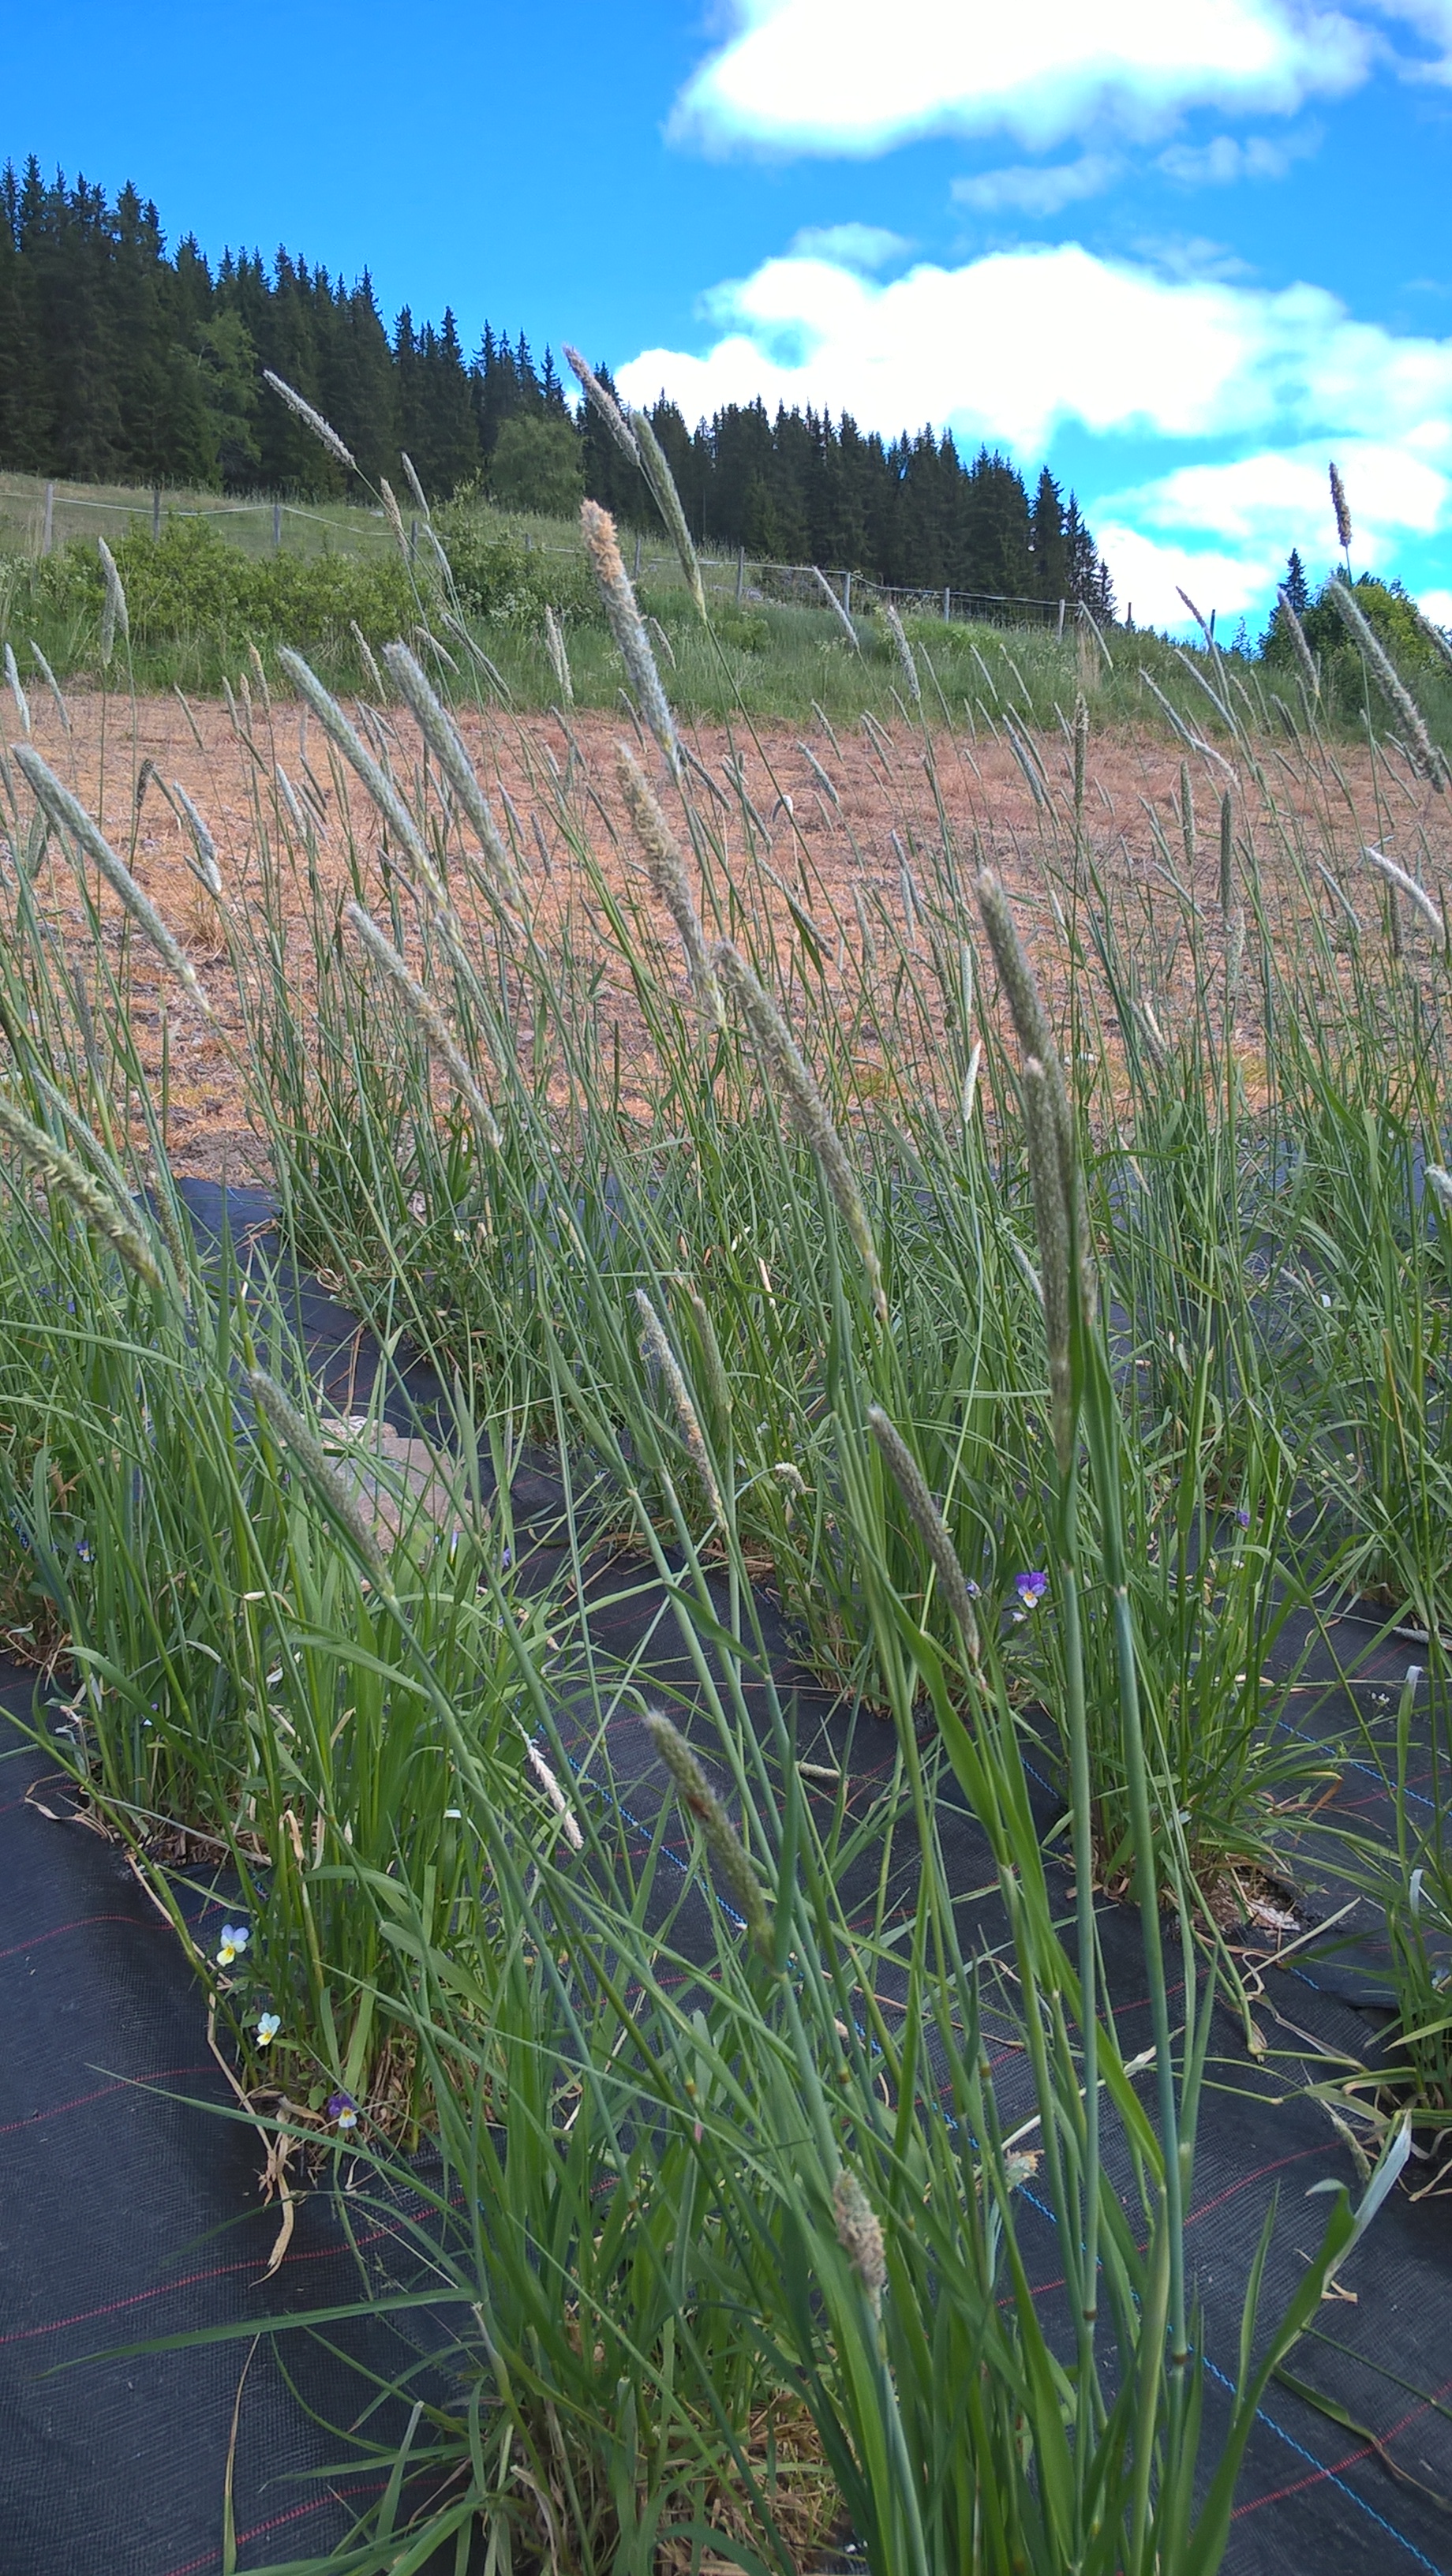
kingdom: Plantae
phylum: Tracheophyta
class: Liliopsida
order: Poales
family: Poaceae
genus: Alopecurus
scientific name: Alopecurus pratensis
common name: Meadow foxtail
